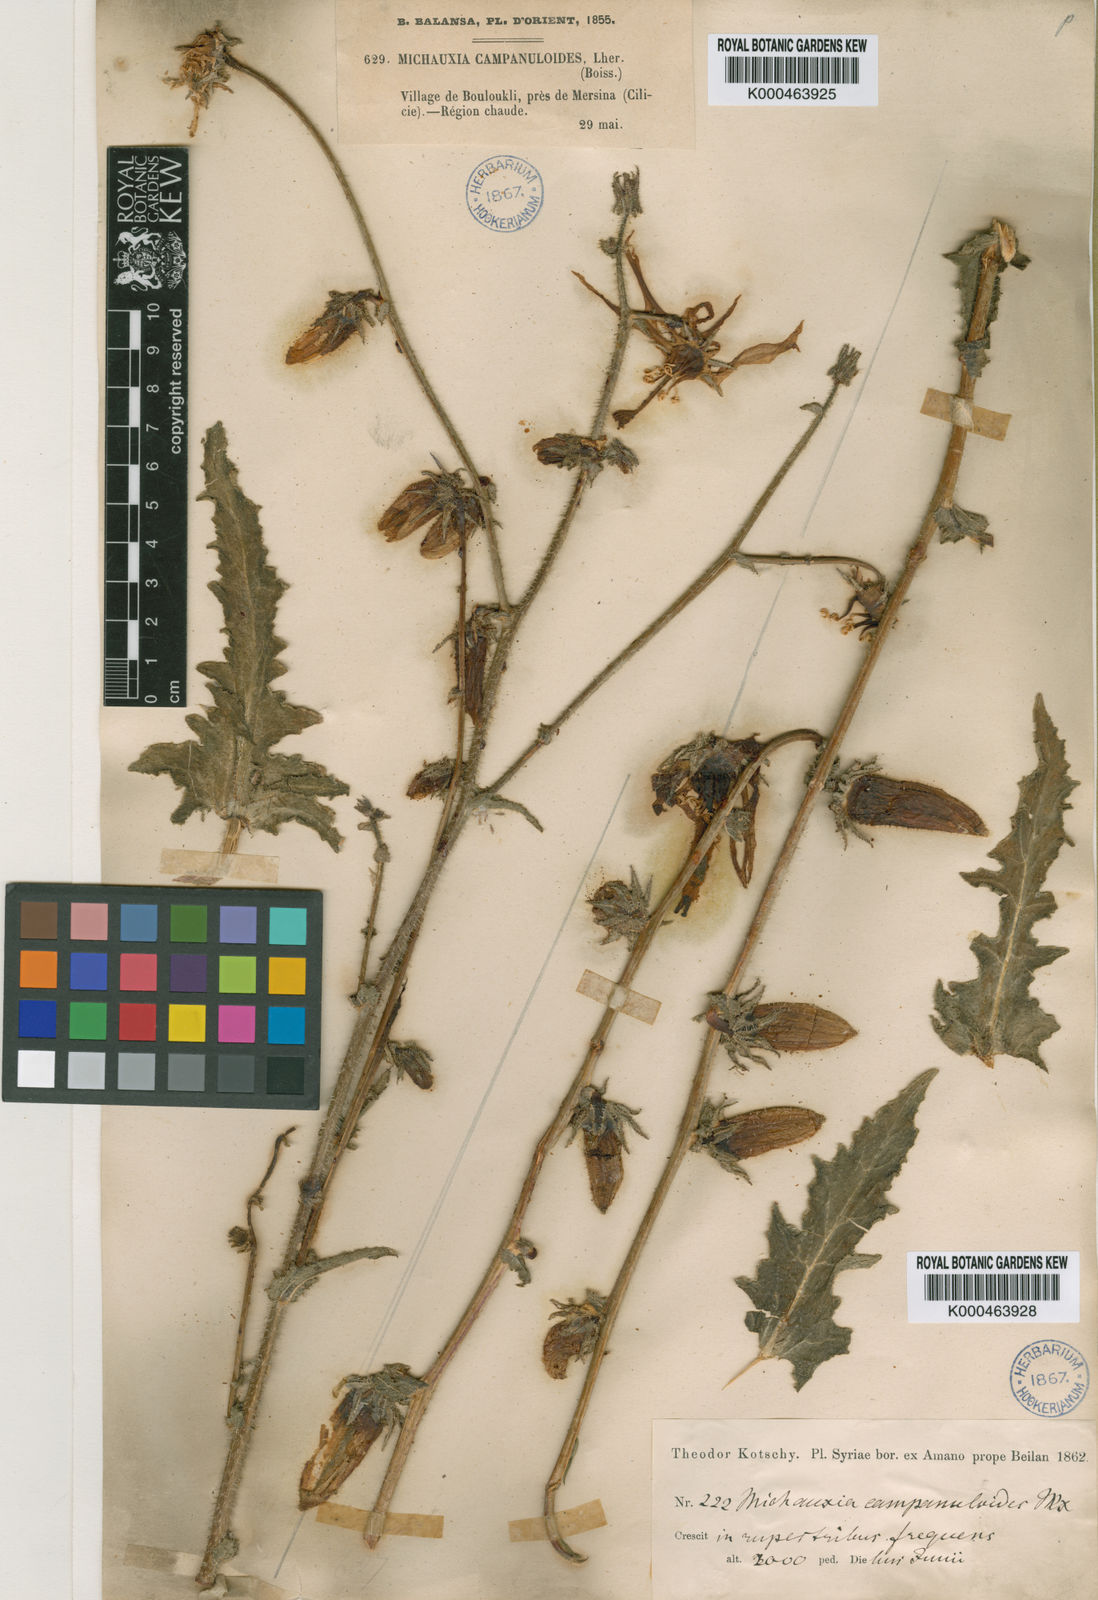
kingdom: Plantae
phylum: Tracheophyta
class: Magnoliopsida
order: Asterales
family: Campanulaceae
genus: Michauxia
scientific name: Michauxia
